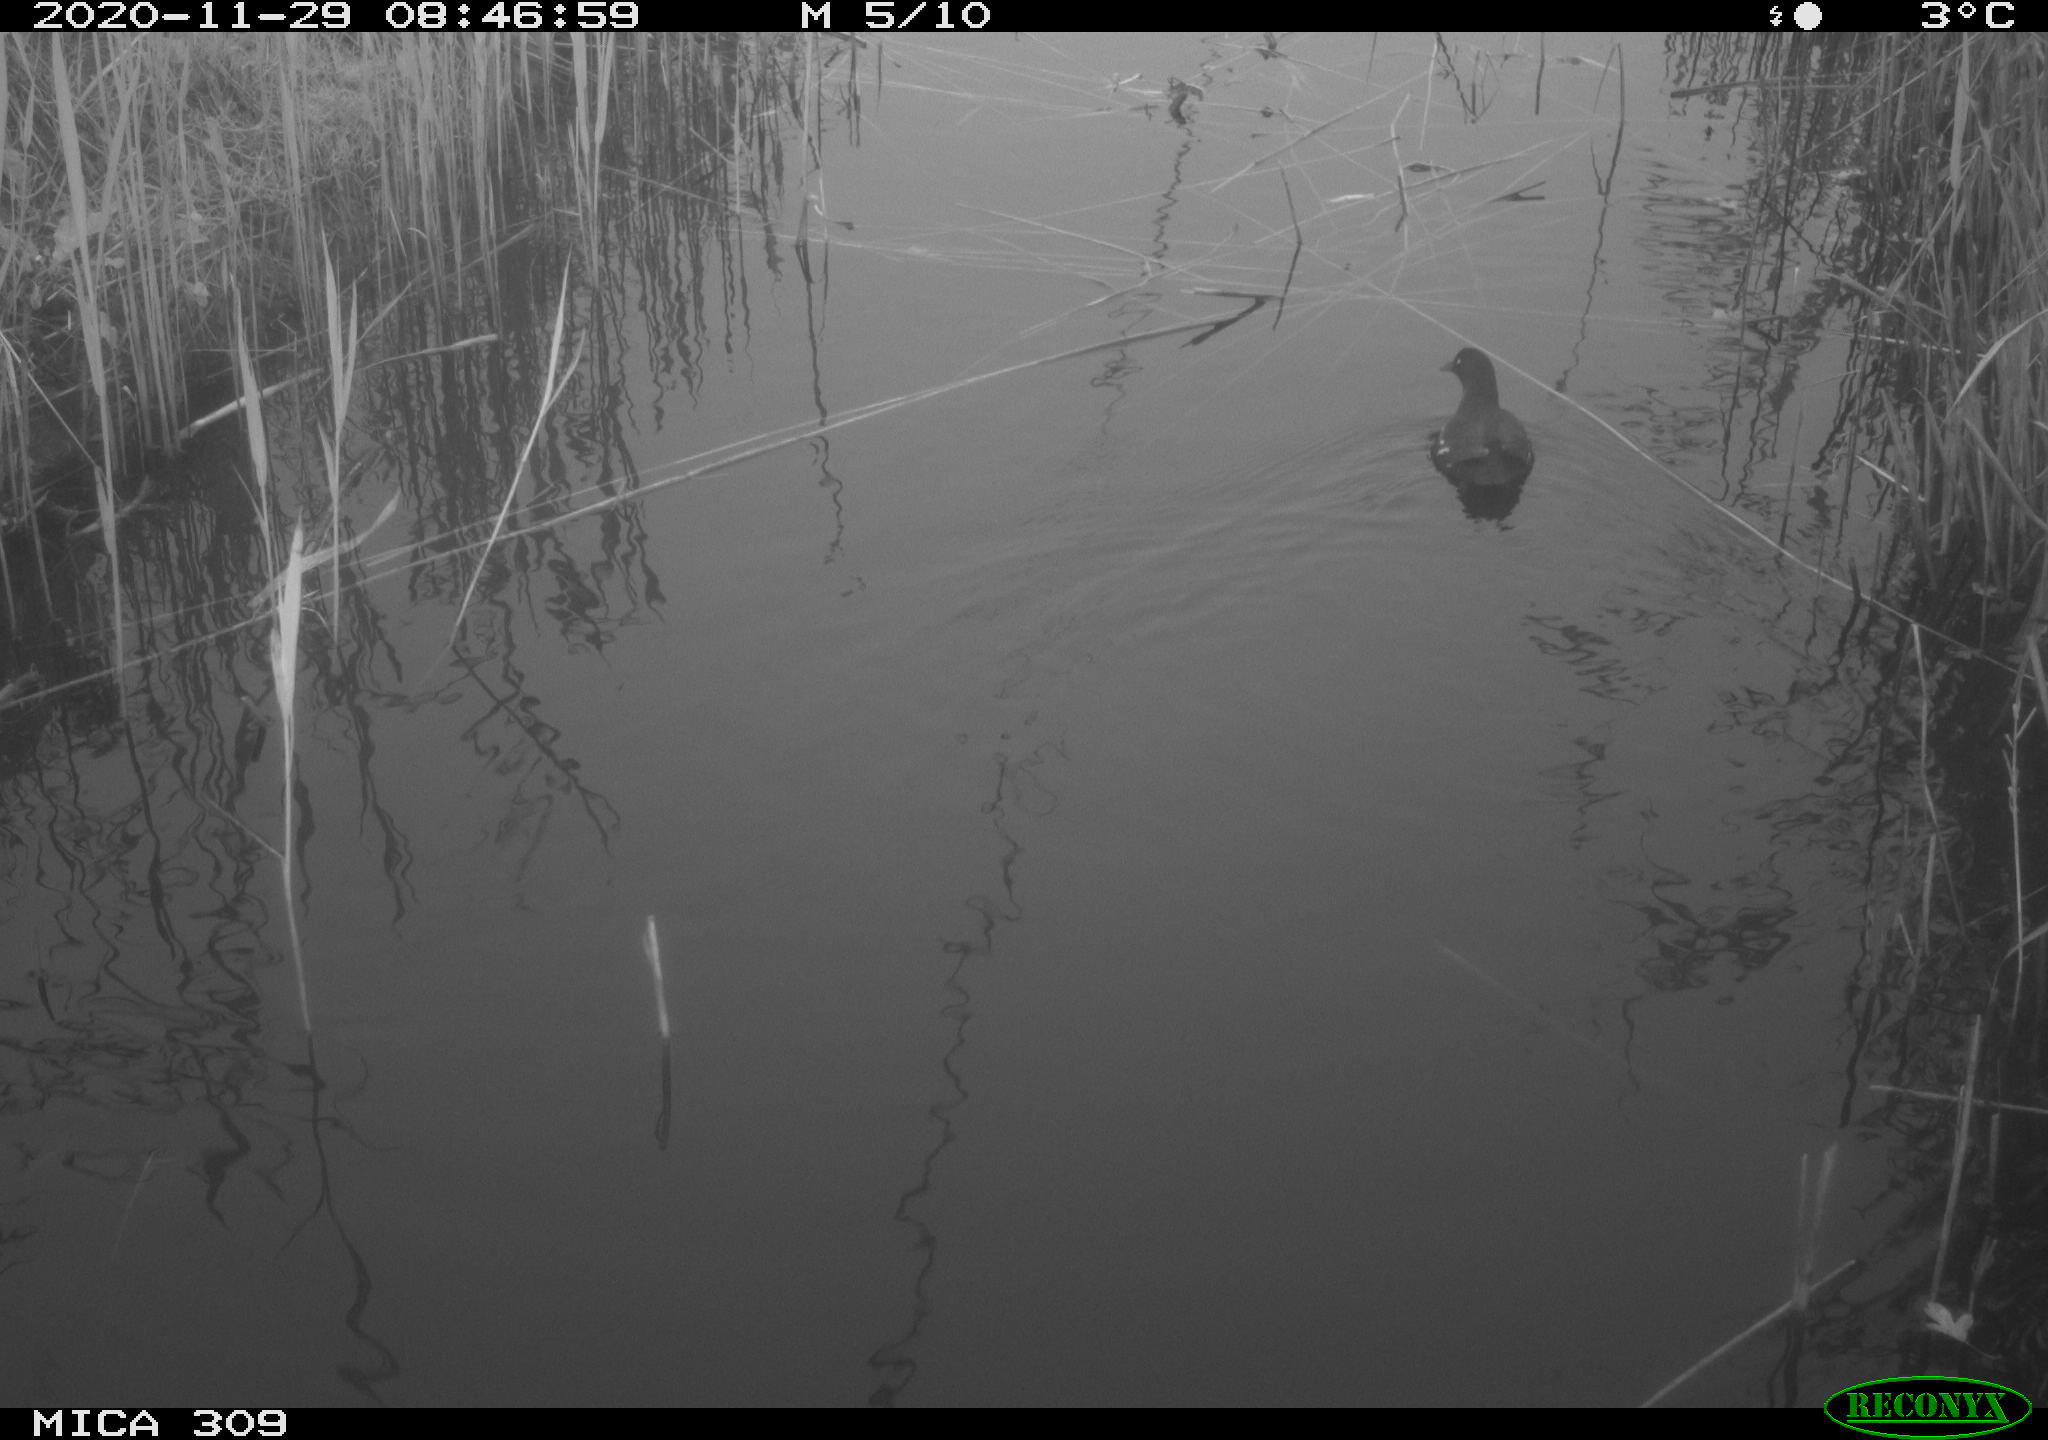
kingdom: Animalia
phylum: Chordata
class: Aves
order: Gruiformes
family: Rallidae
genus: Gallinula
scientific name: Gallinula chloropus
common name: Common moorhen
